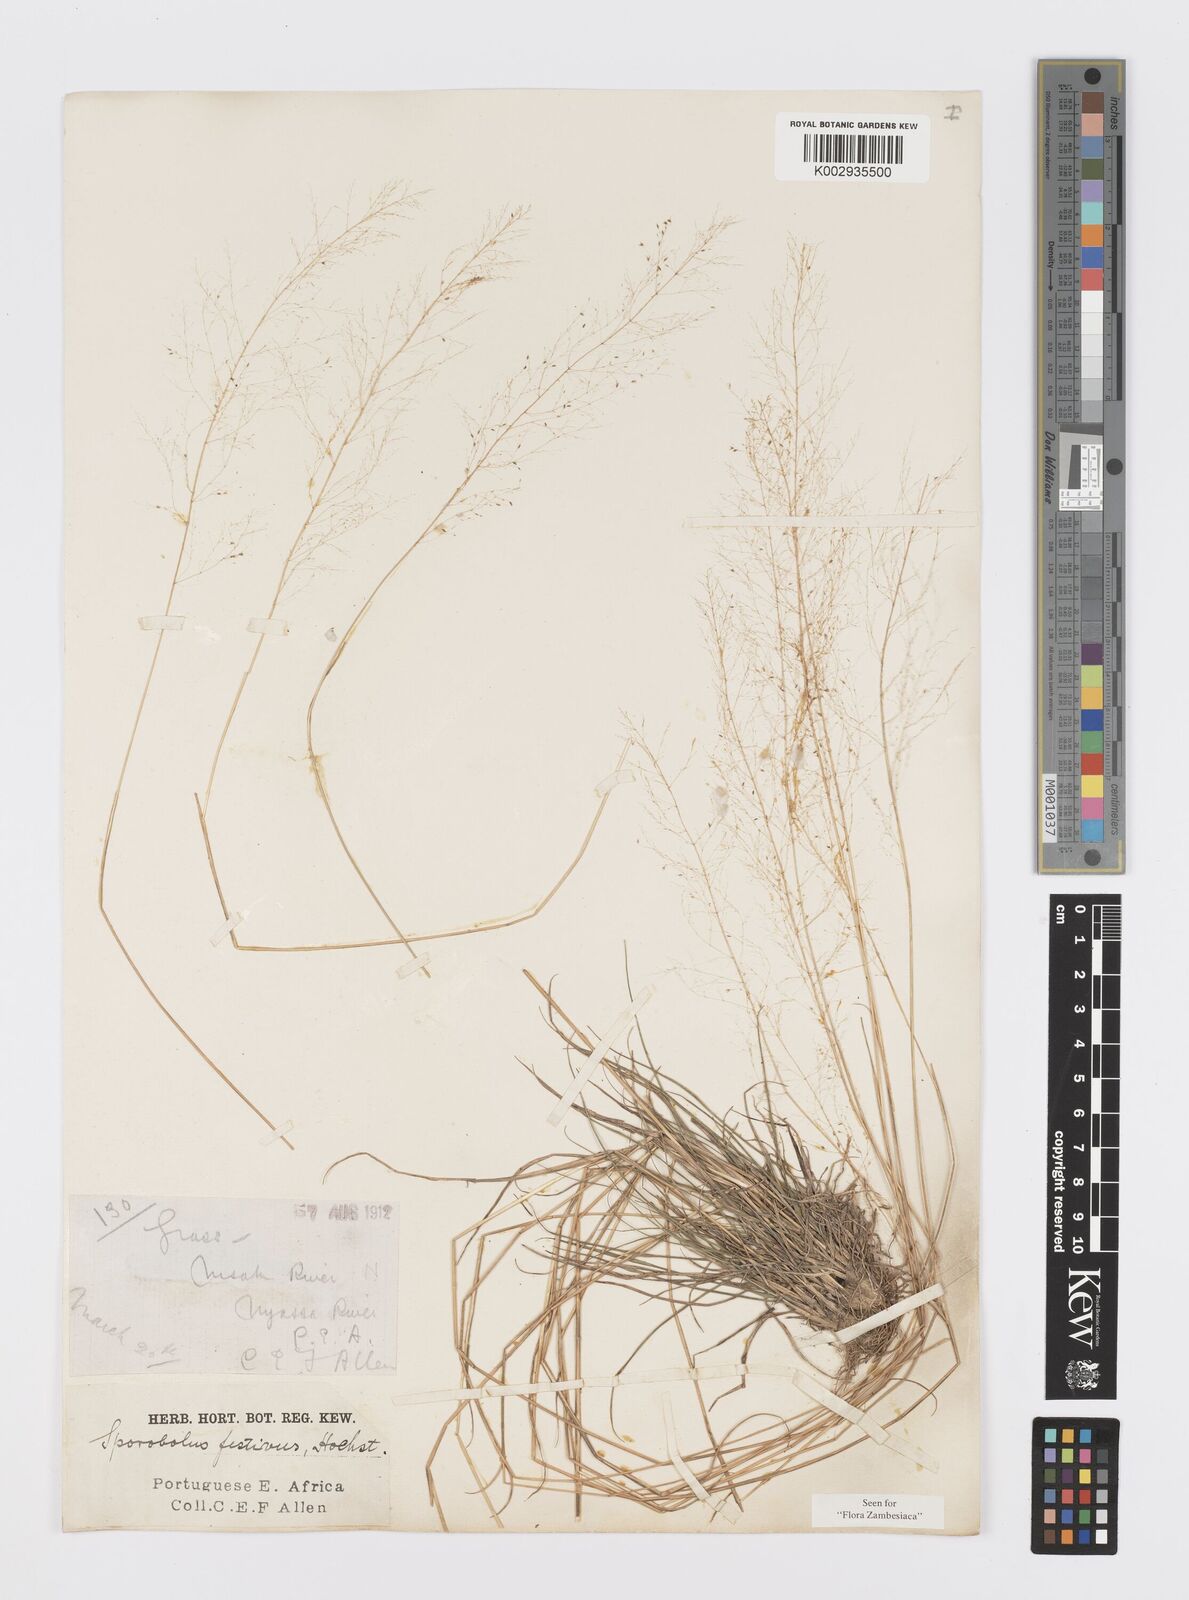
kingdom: Plantae
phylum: Tracheophyta
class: Liliopsida
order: Poales
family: Poaceae
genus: Sporobolus
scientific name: Sporobolus festivus
